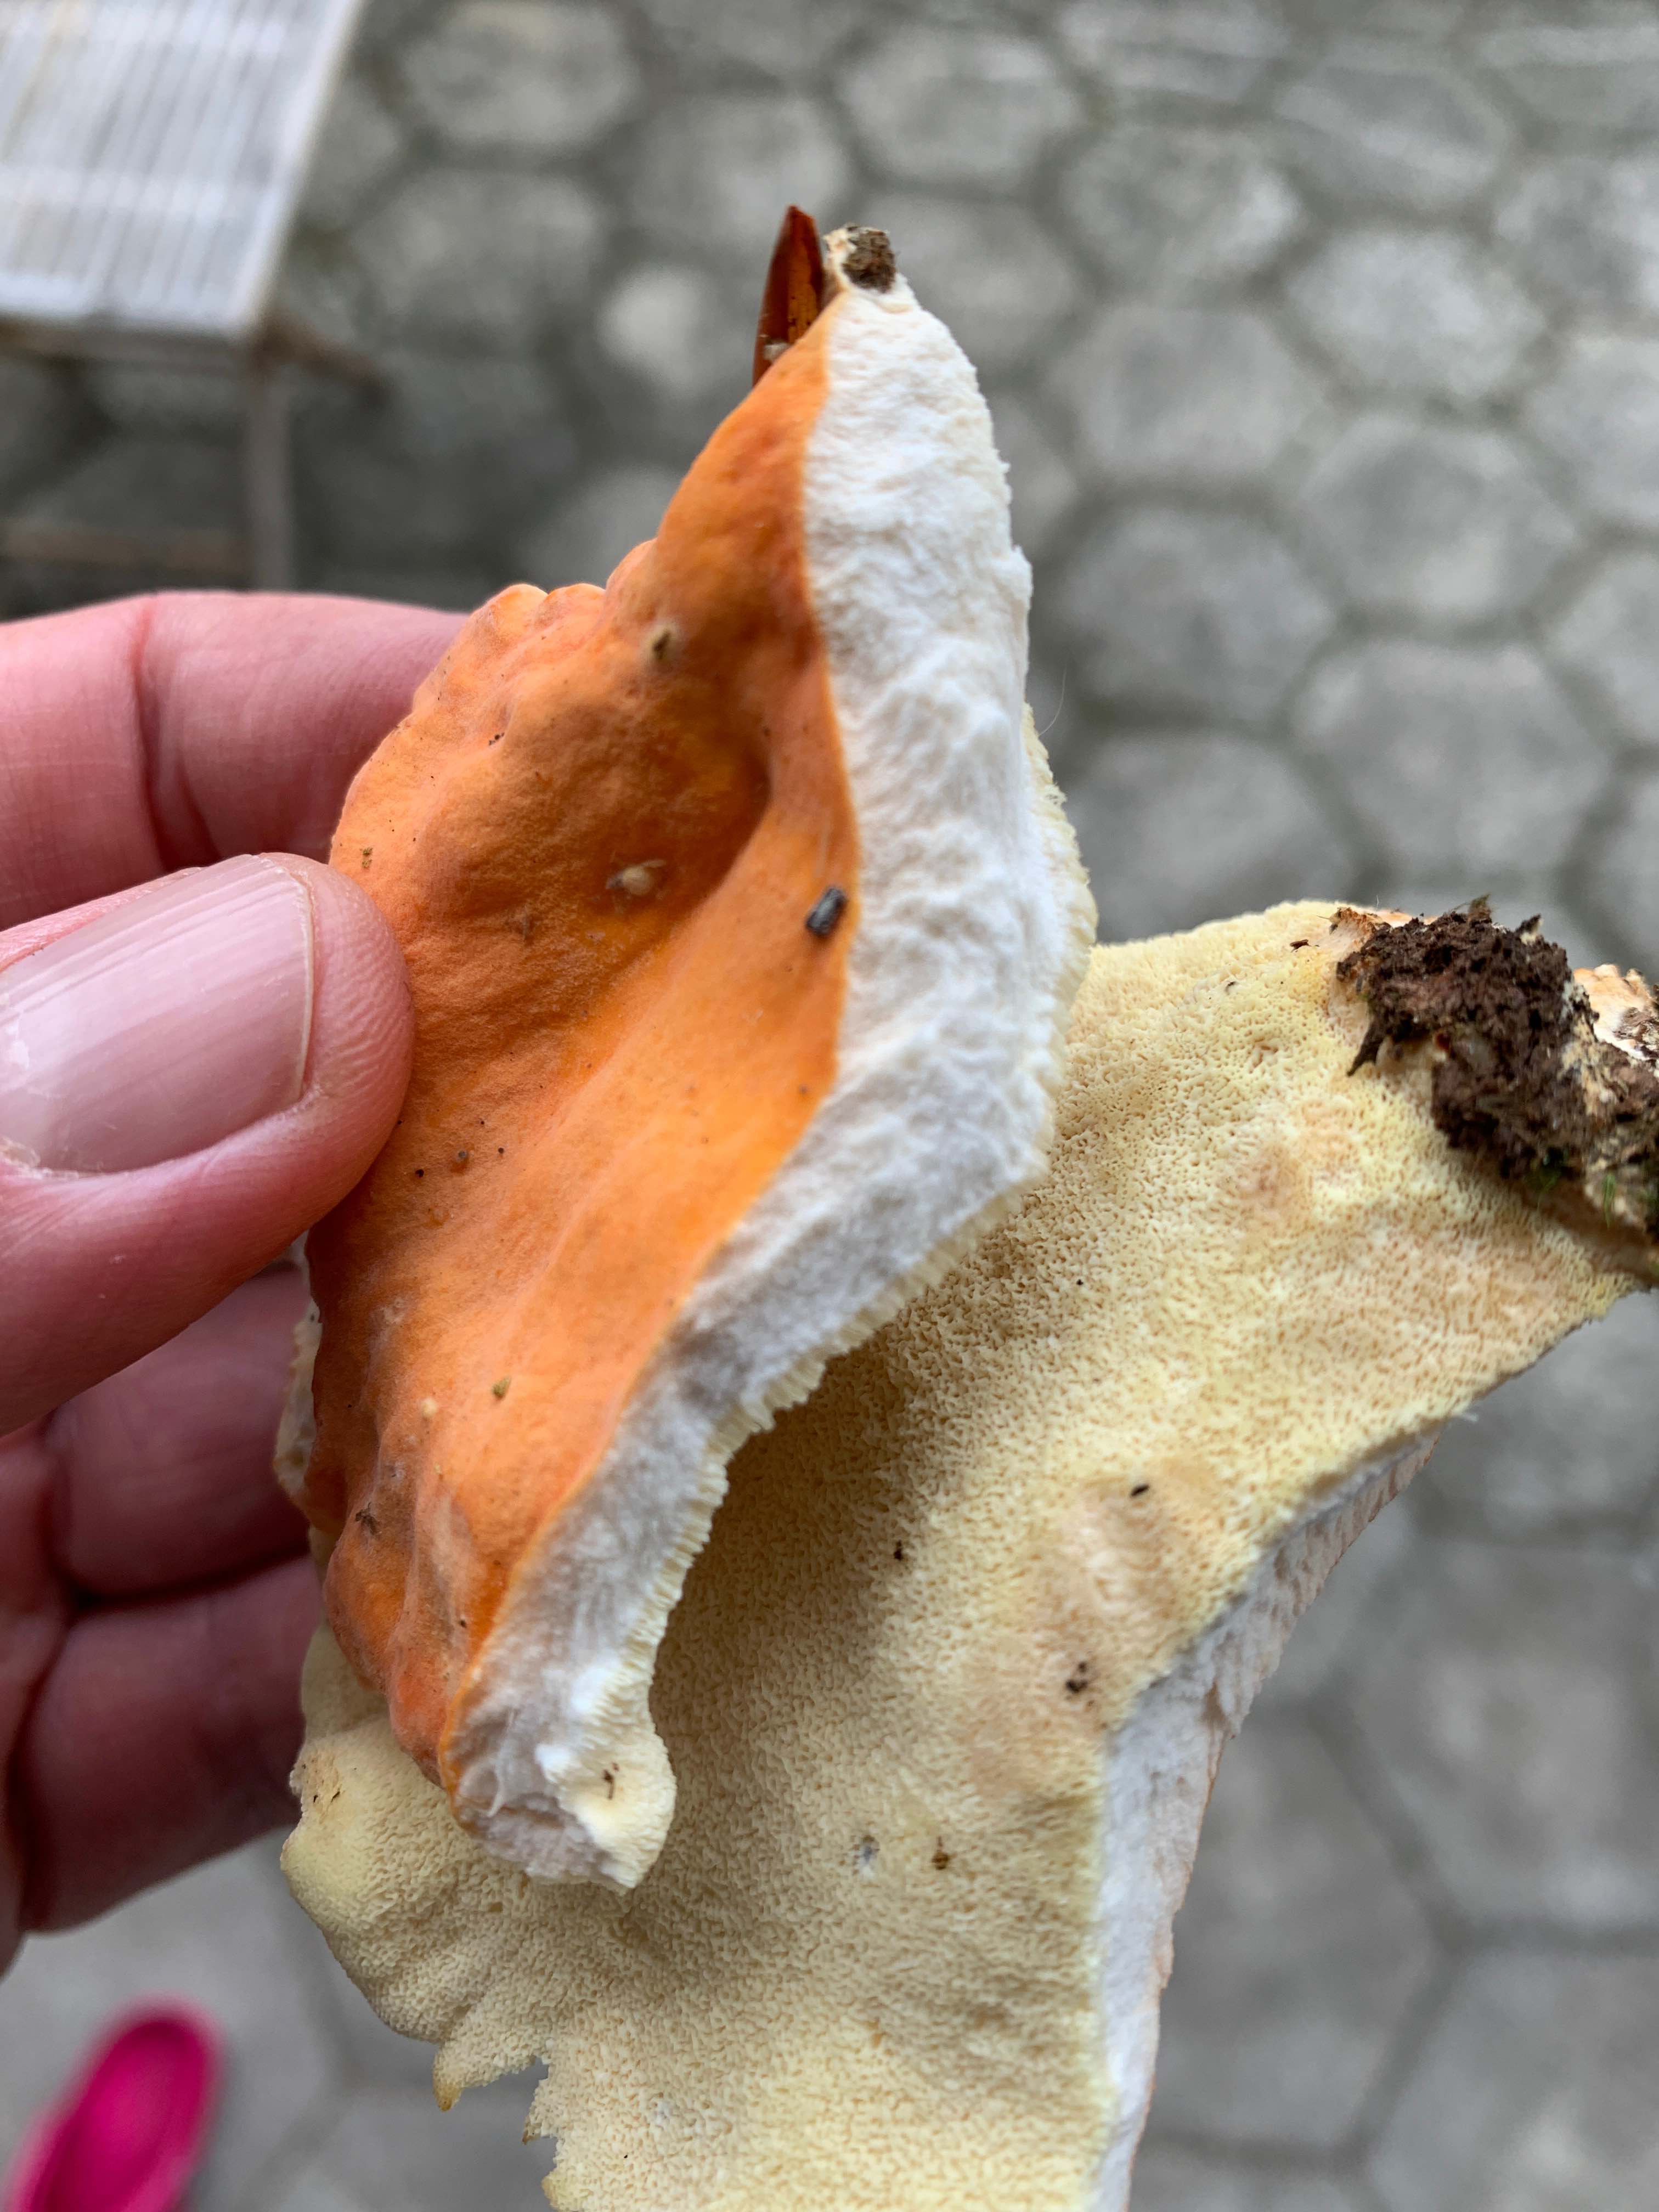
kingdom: Fungi
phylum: Basidiomycota
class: Agaricomycetes
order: Polyporales
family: Pycnoporellaceae
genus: Pycnoporellus
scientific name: Pycnoporellus fulgens
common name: flammeporesvamp
